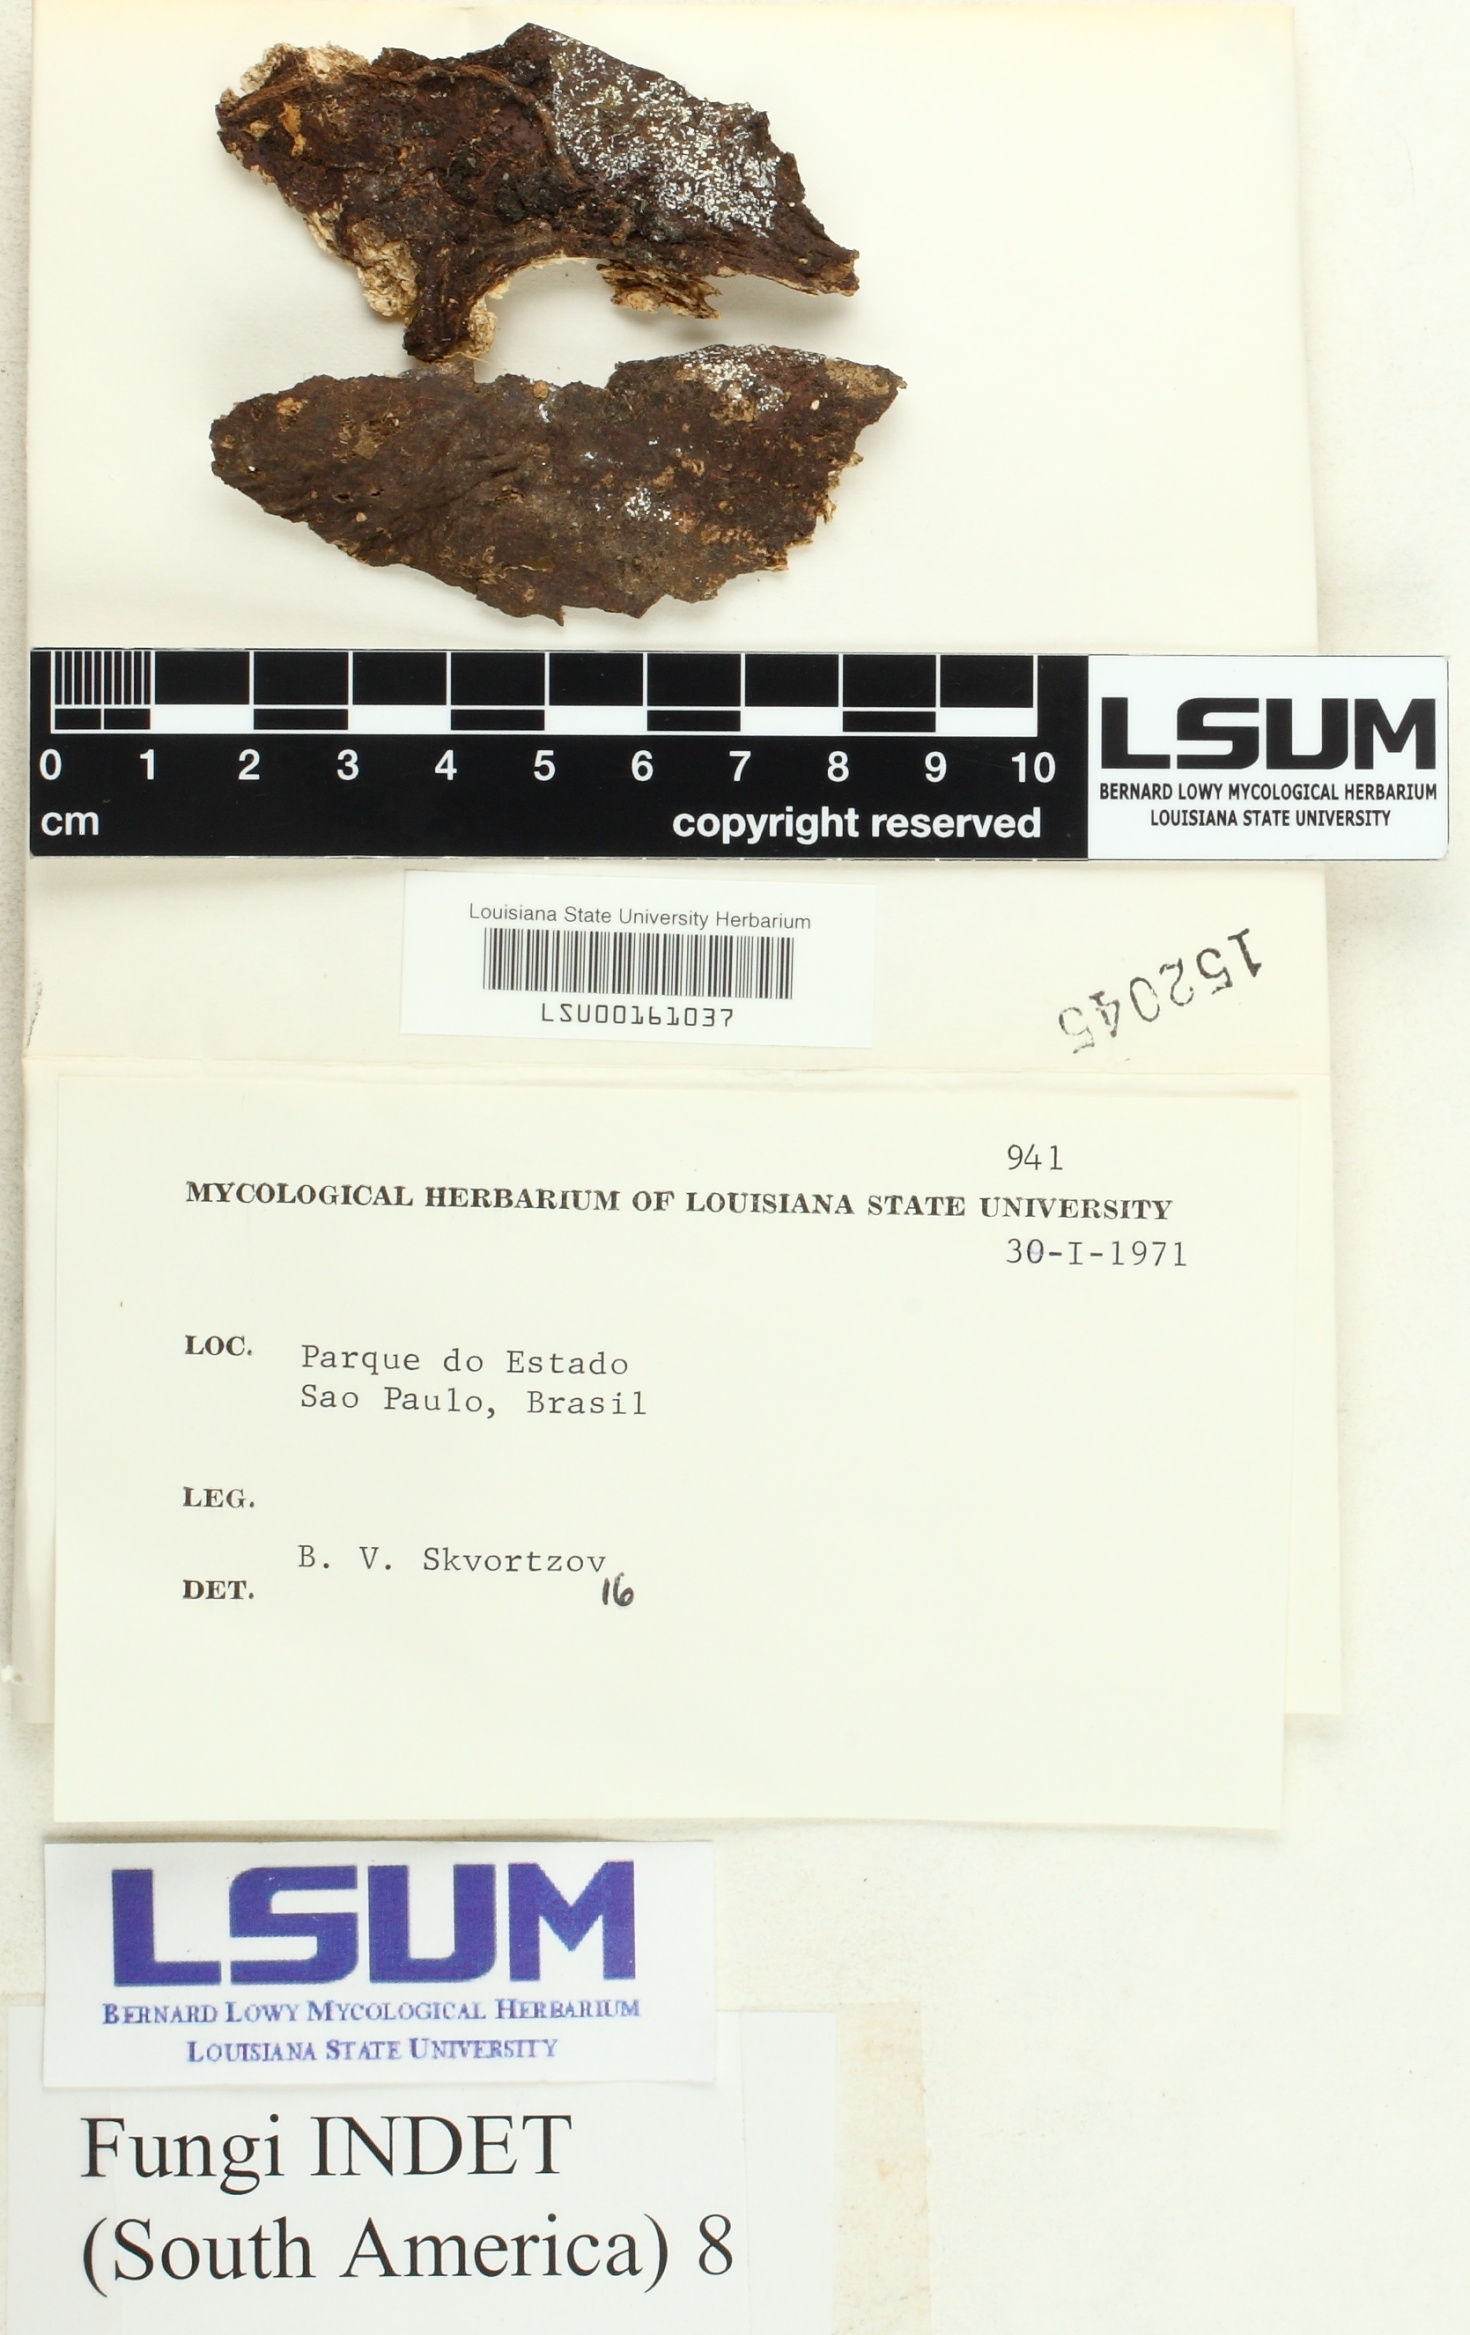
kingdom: Fungi
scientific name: Fungi
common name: Fungi
